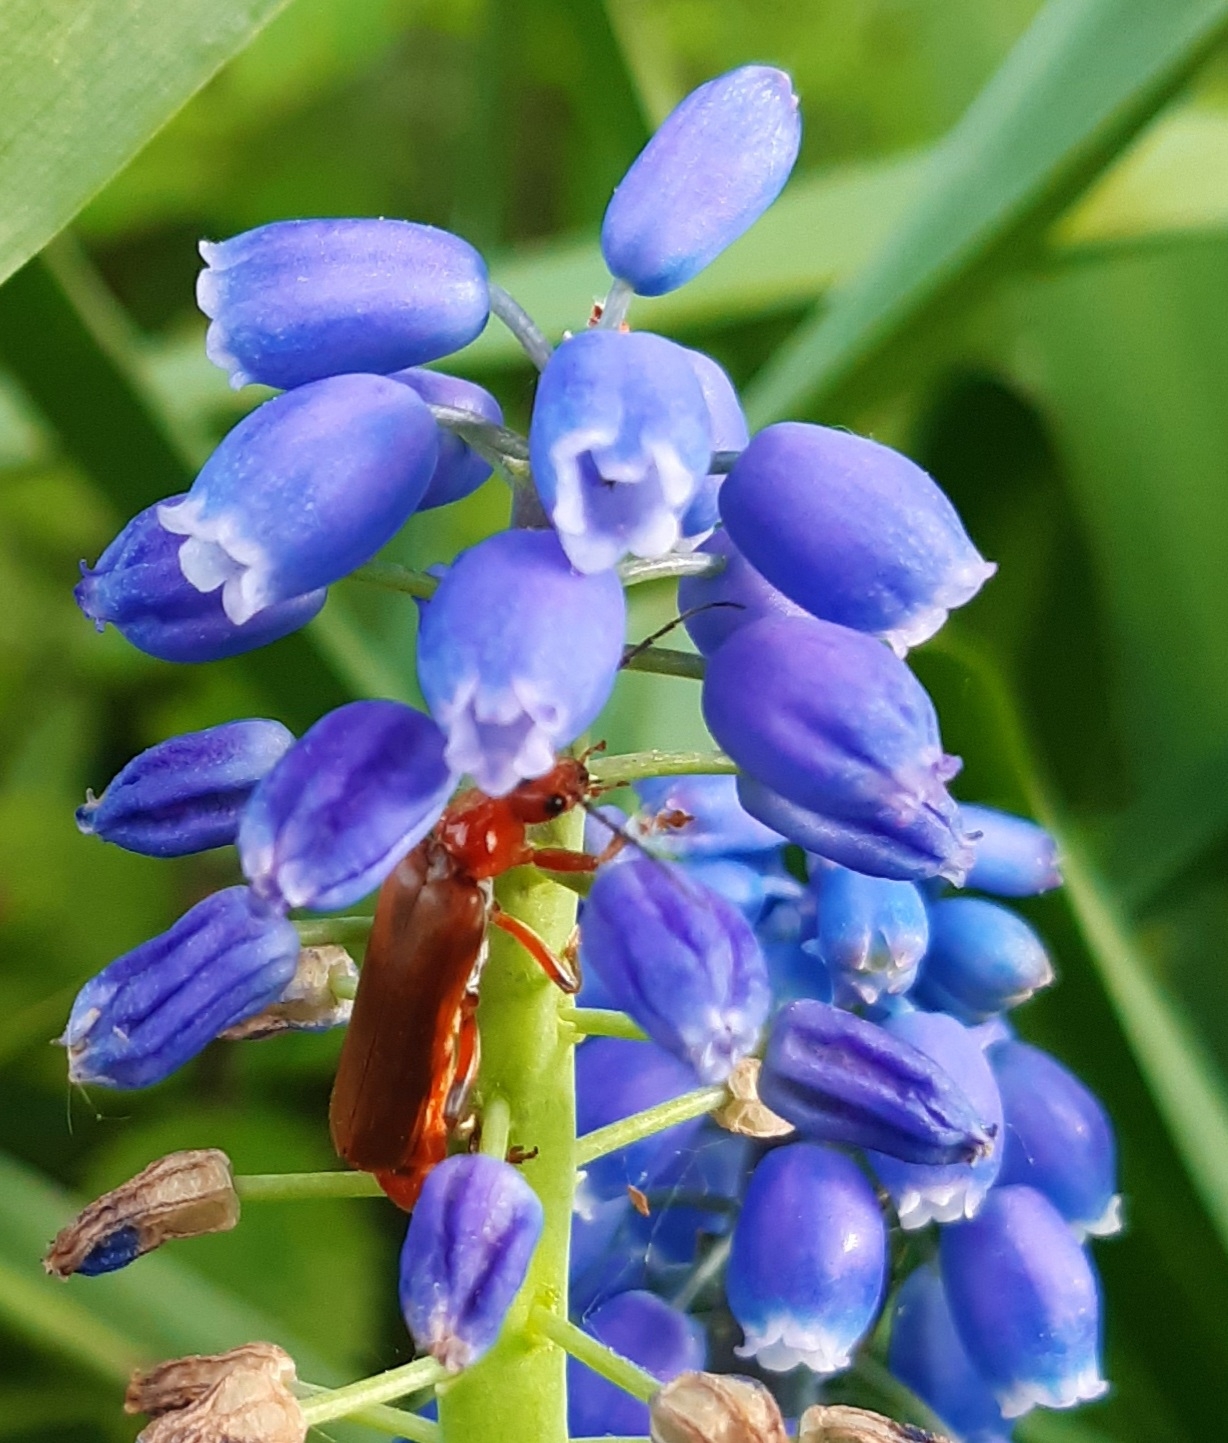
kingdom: Animalia
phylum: Arthropoda
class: Insecta
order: Coleoptera
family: Cantharidae
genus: Cantharis
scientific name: Cantharis livida
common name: Gul blødvinge
